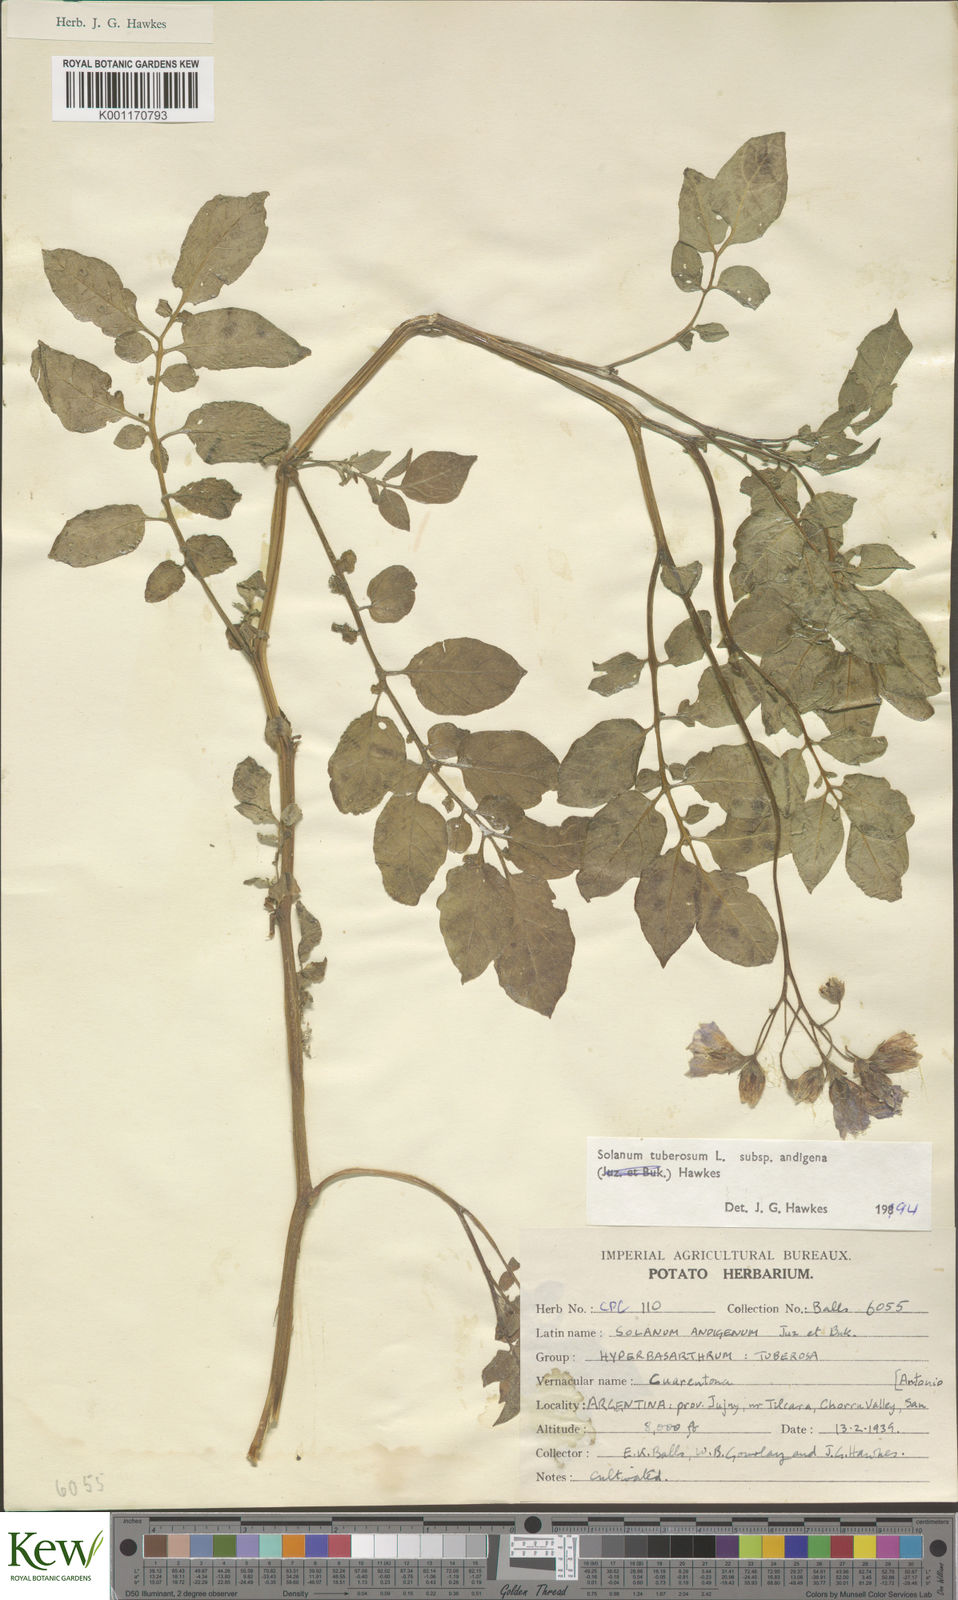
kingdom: Plantae
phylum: Tracheophyta
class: Magnoliopsida
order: Solanales
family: Solanaceae
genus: Solanum
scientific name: Solanum tuberosum
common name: Potato
